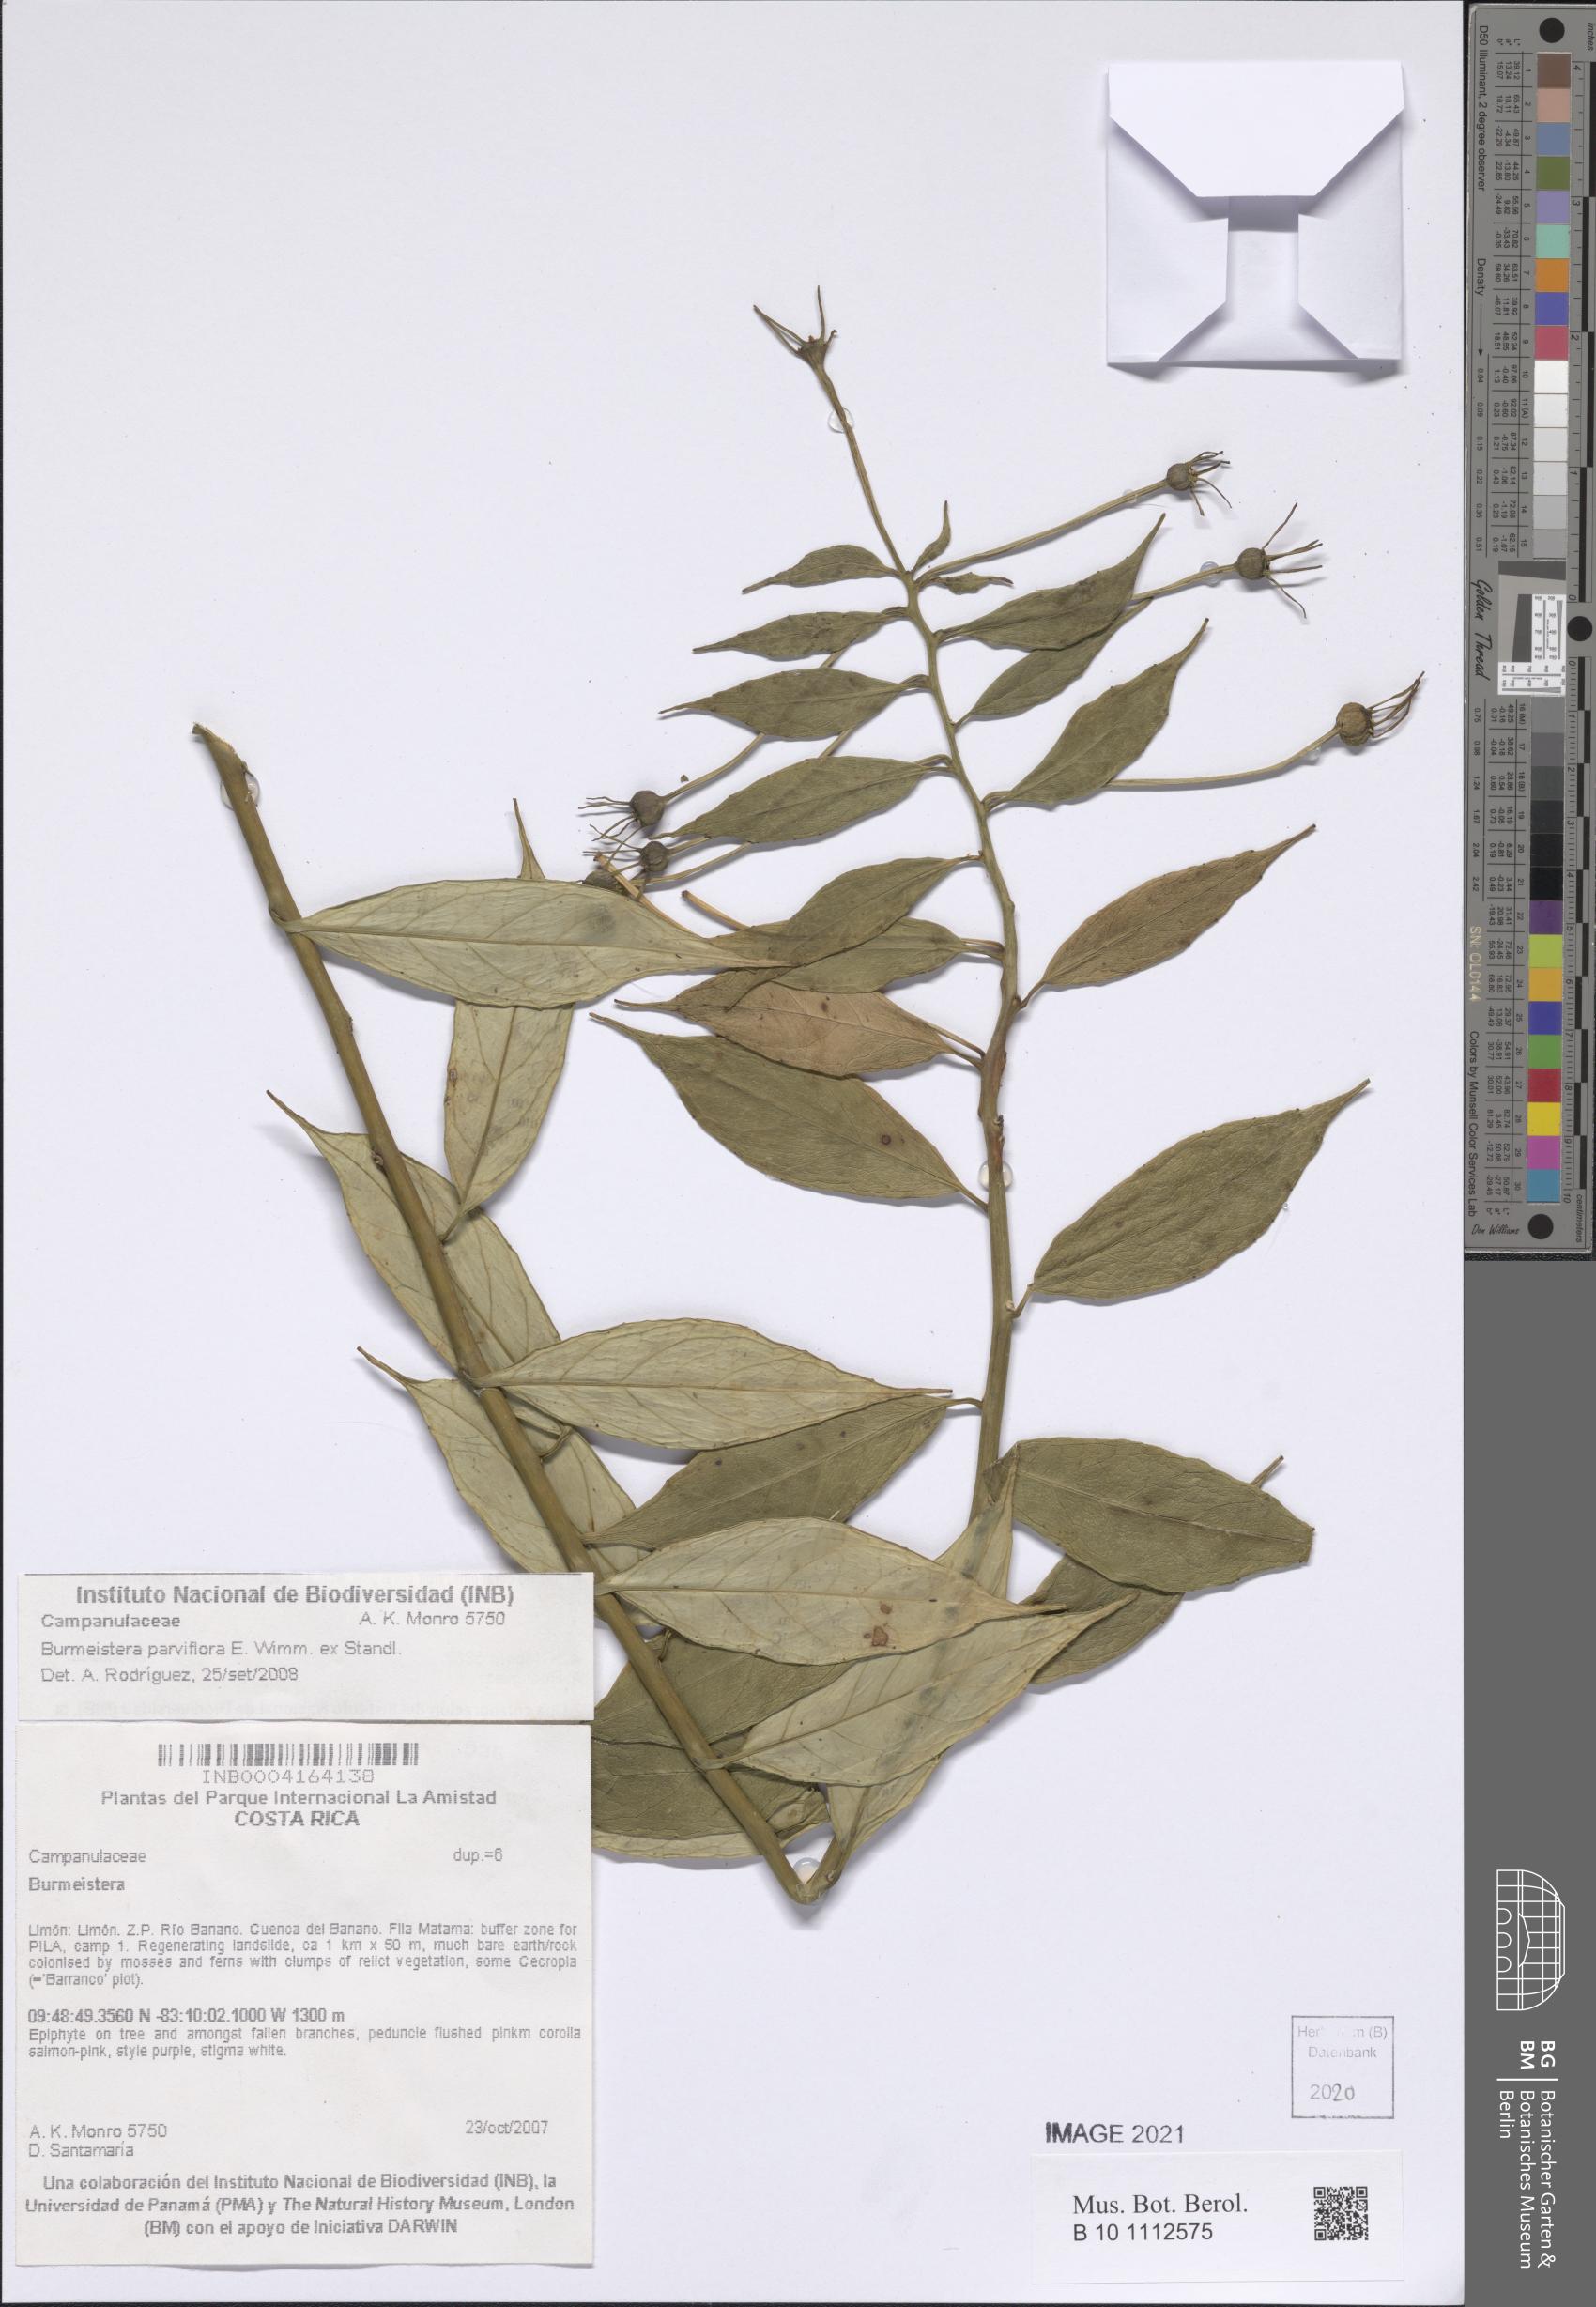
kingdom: Plantae
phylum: Tracheophyta
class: Magnoliopsida
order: Asterales
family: Campanulaceae
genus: Burmeistera
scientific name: Burmeistera parviflora
